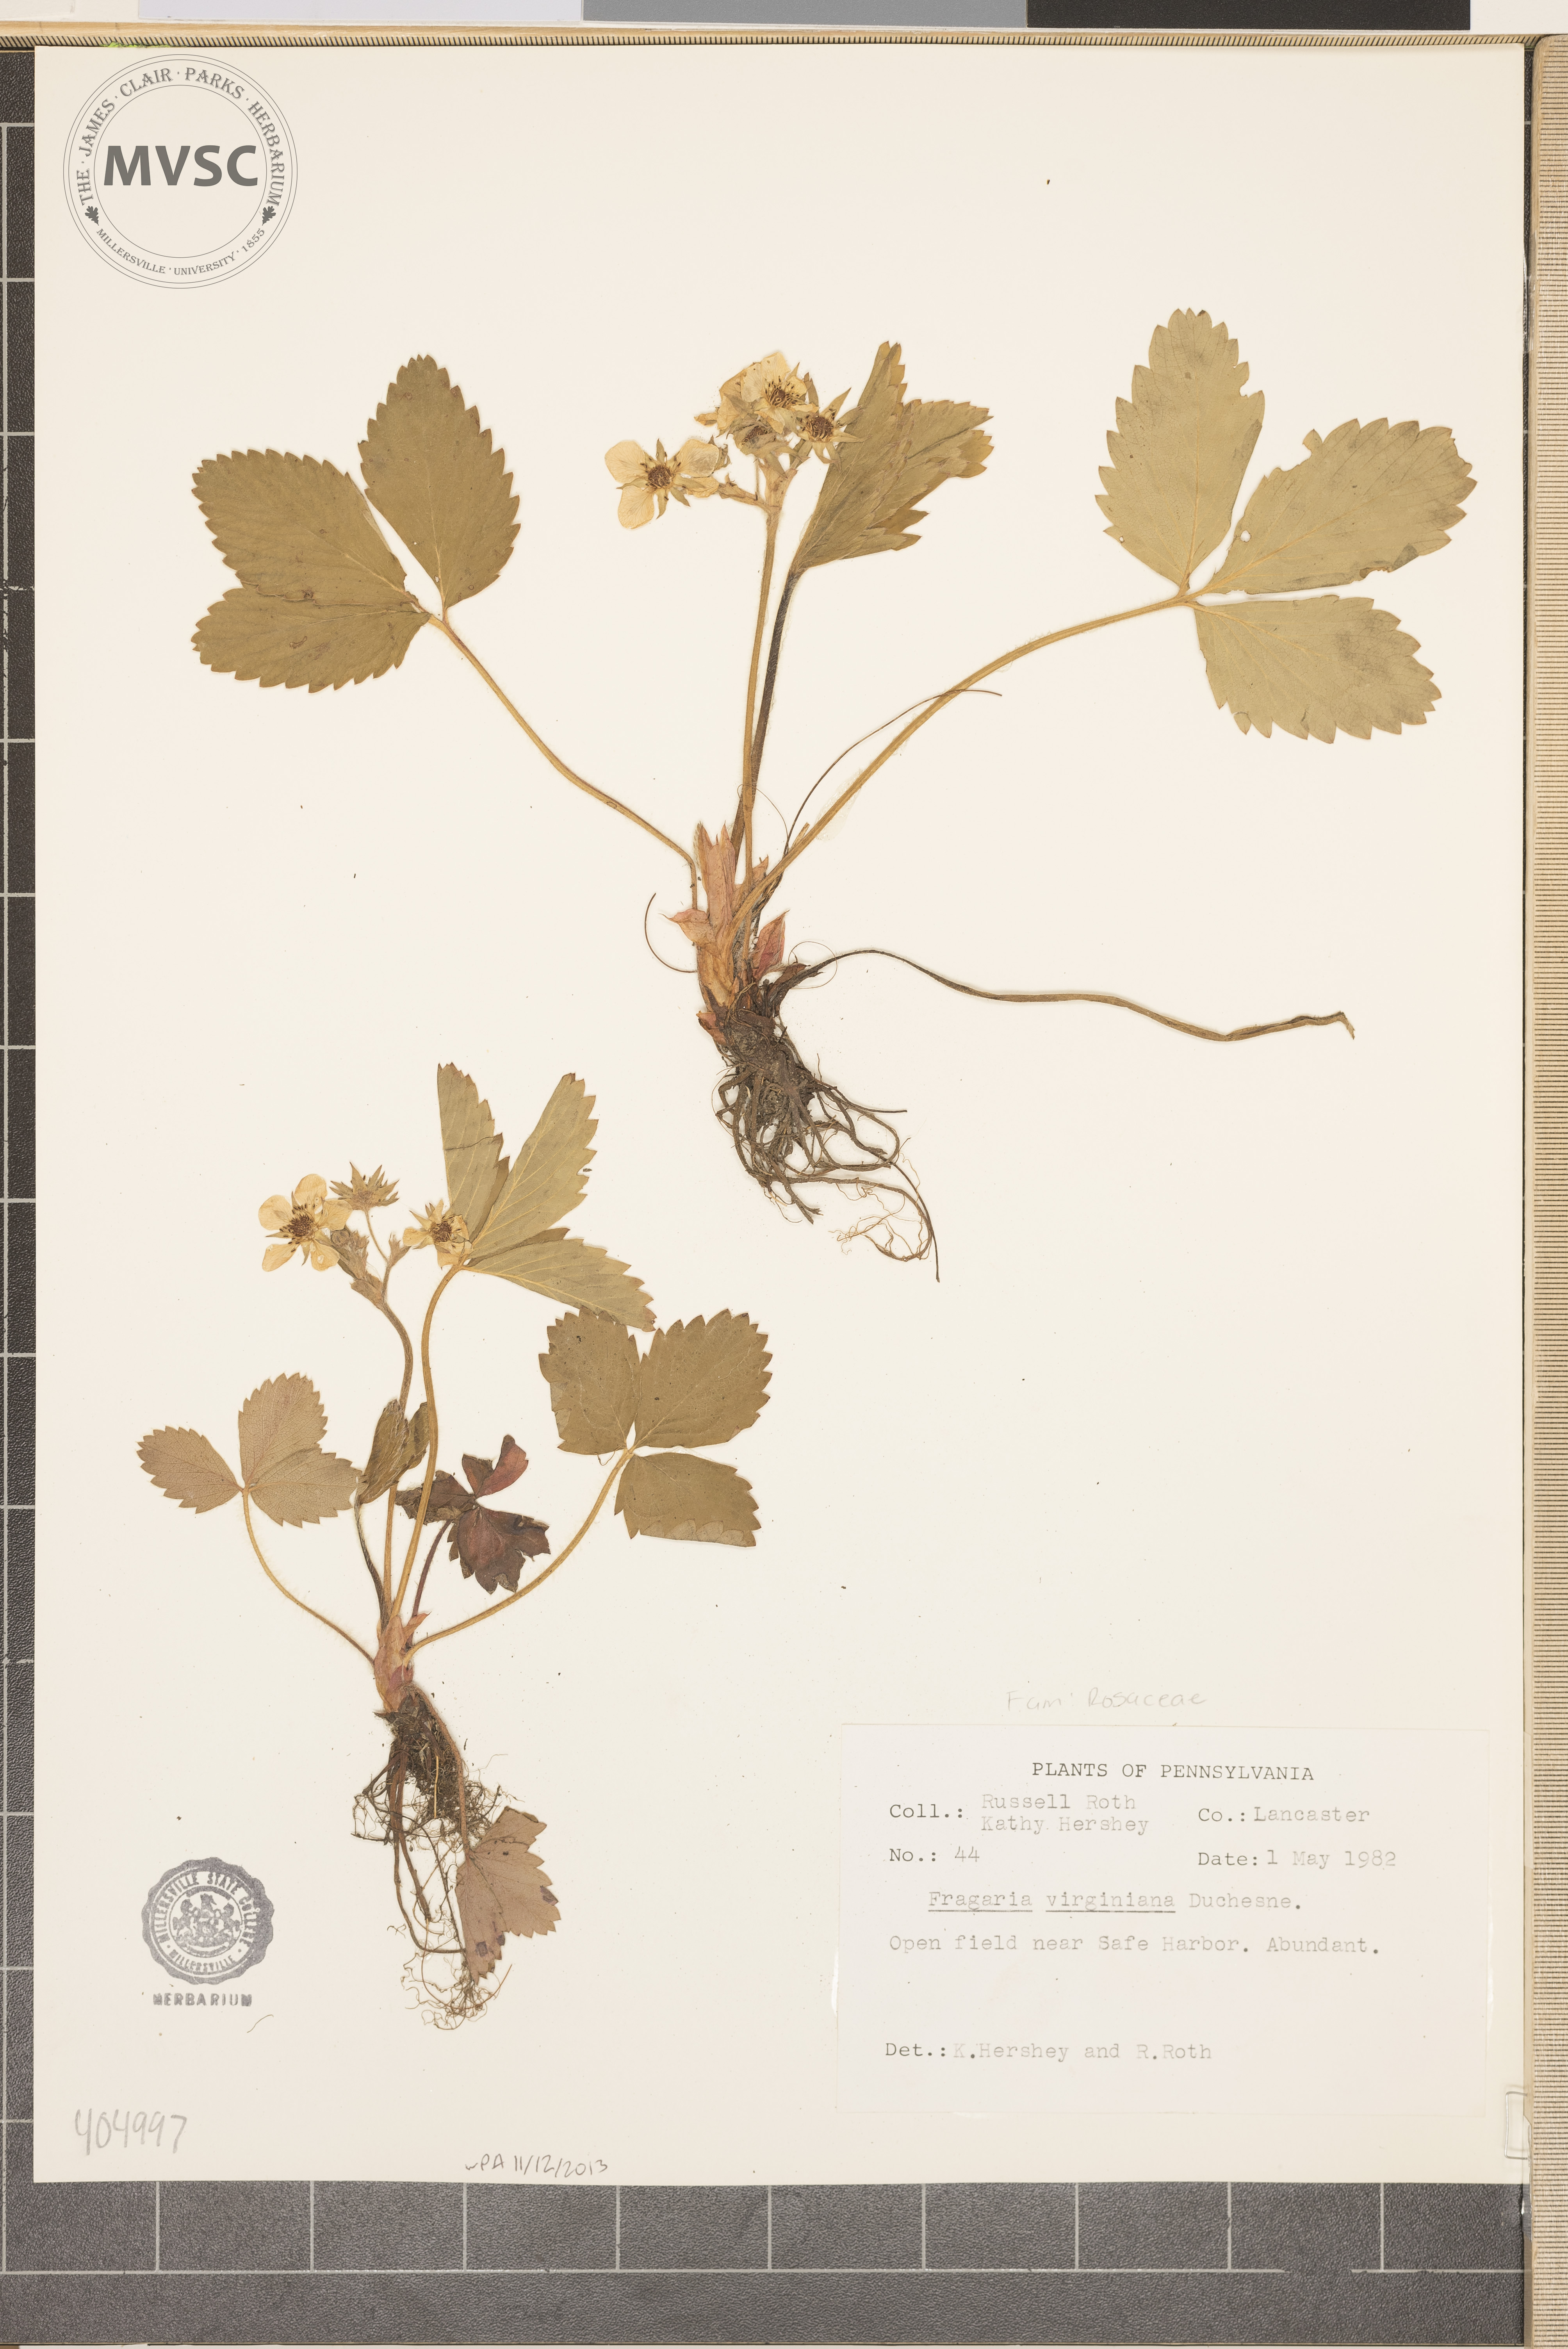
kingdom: Plantae
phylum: Tracheophyta
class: Magnoliopsida
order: Rosales
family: Rosaceae
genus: Fragaria
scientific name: Fragaria virginiana
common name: Thickleaved wild strawberry
